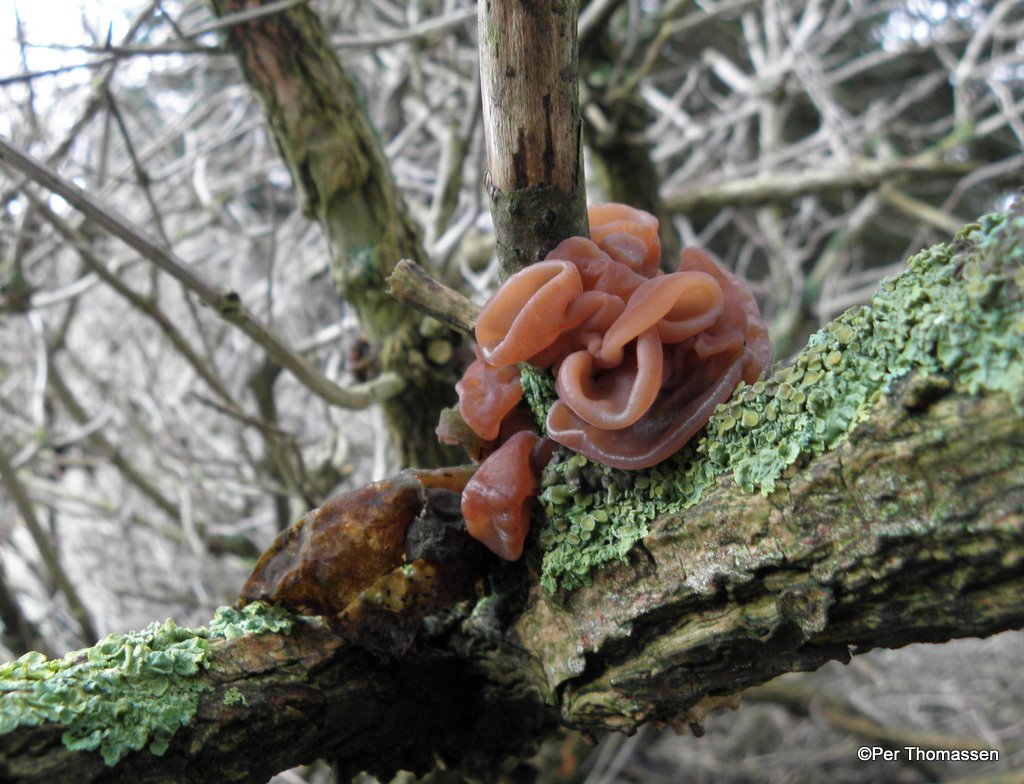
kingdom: Fungi
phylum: Basidiomycota
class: Agaricomycetes
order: Auriculariales
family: Auriculariaceae
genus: Auricularia
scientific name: Auricularia auricula-judae
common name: almindelig judasøre
